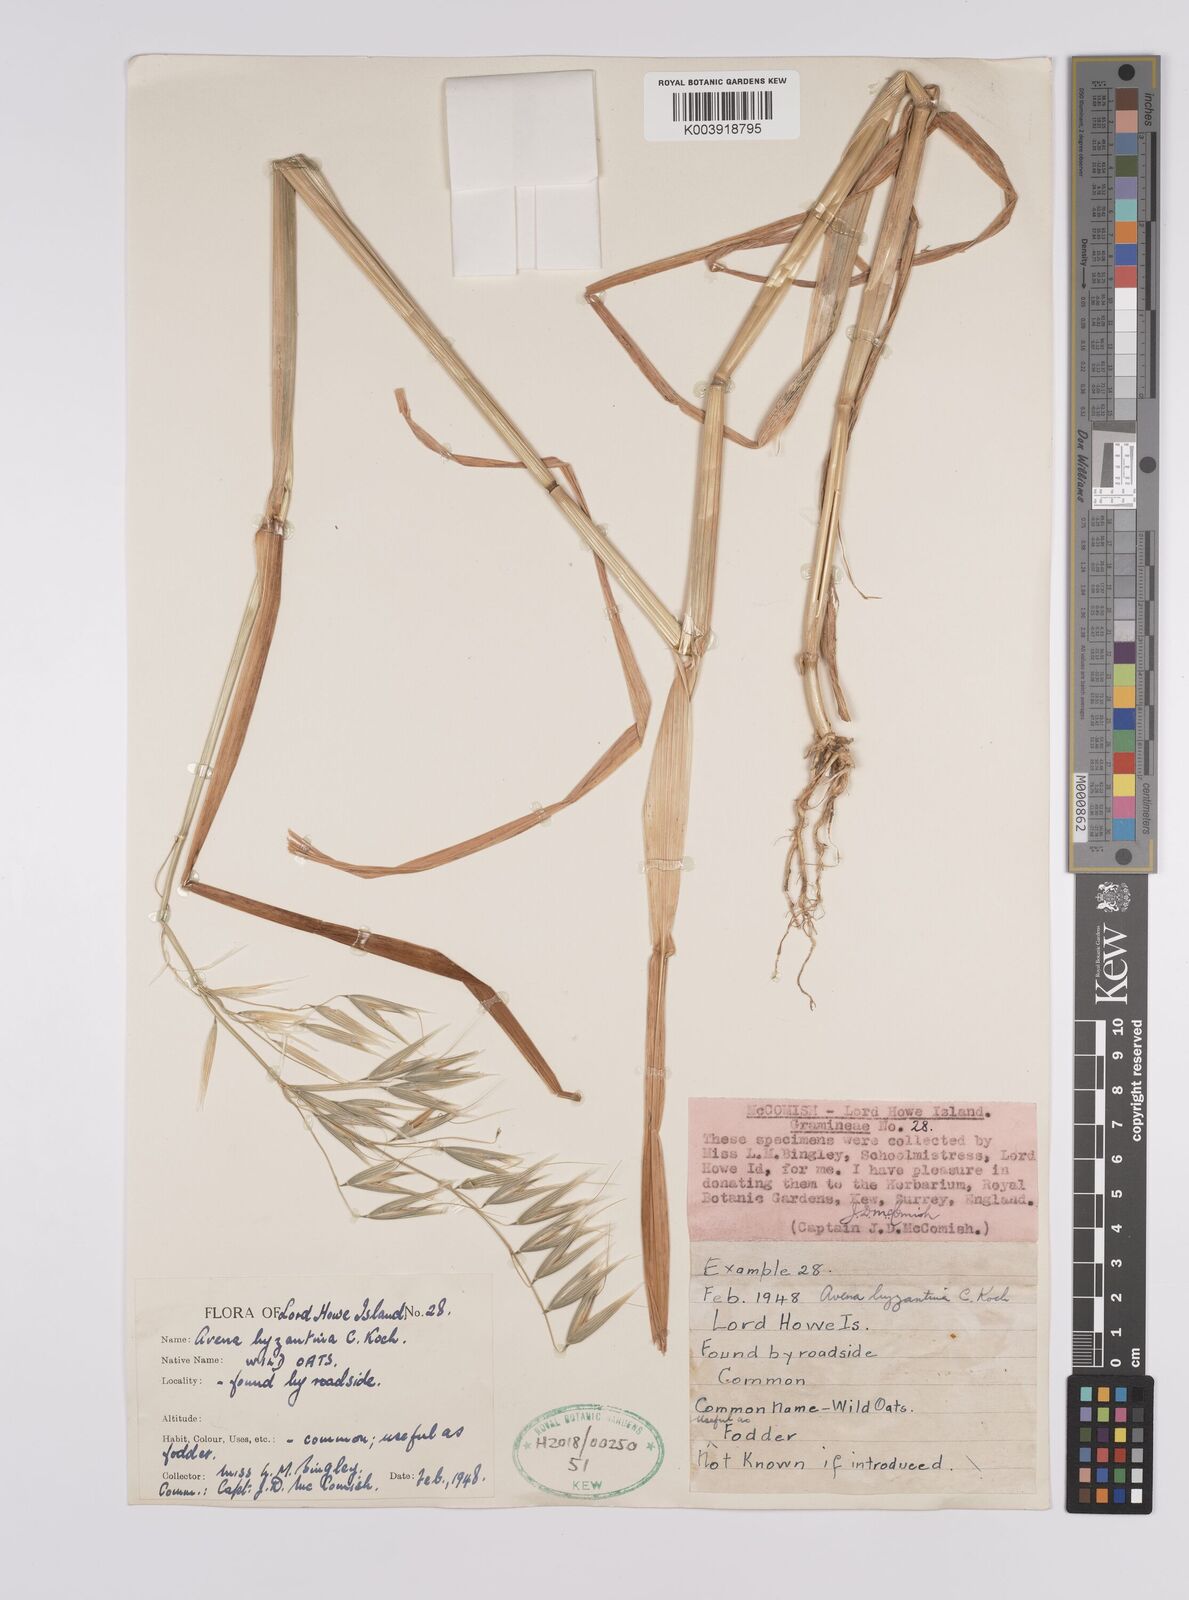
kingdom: Plantae
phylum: Tracheophyta
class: Liliopsida
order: Poales
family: Poaceae
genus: Avena
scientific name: Avena byzantina
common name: Algerian oat
